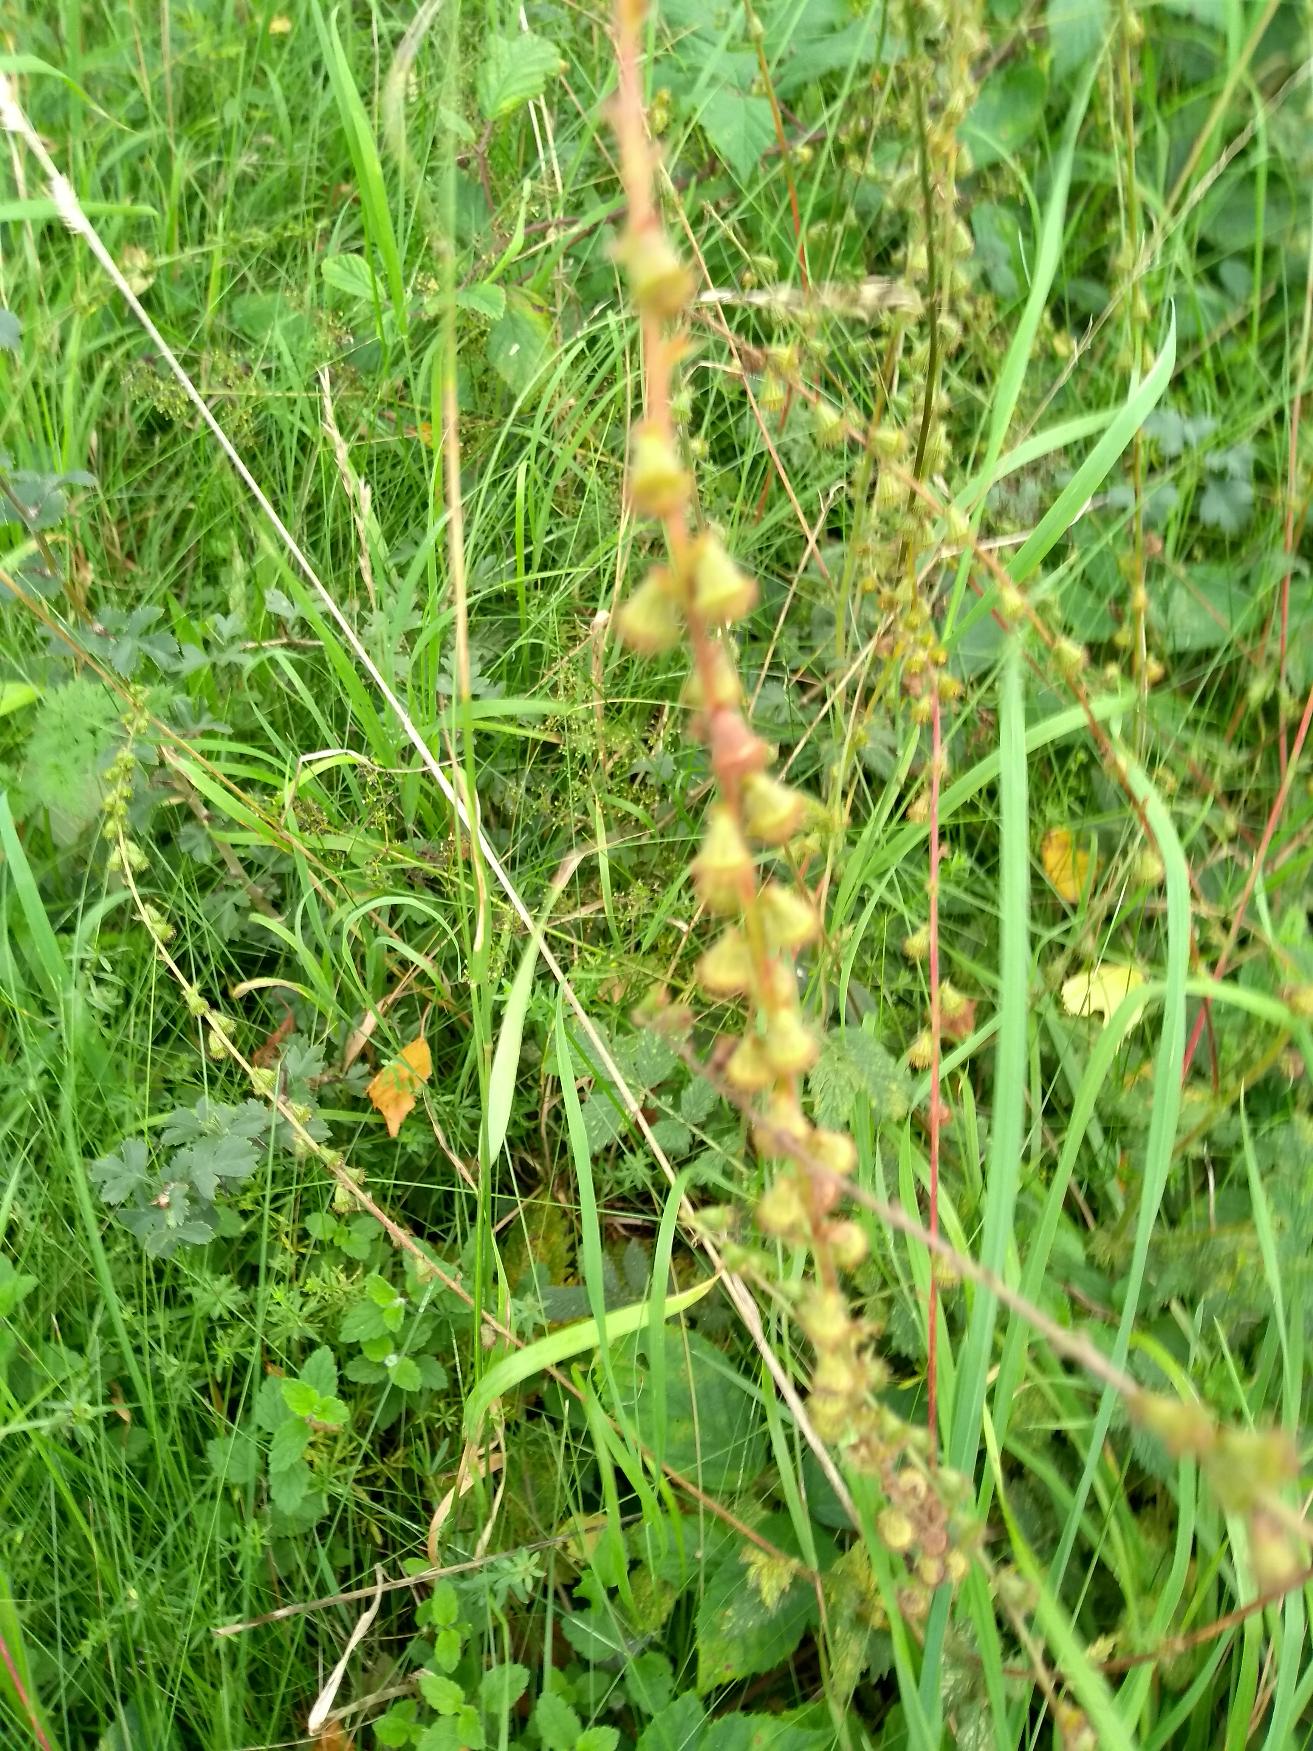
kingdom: Plantae
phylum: Tracheophyta
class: Magnoliopsida
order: Rosales
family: Rosaceae
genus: Agrimonia
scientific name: Agrimonia eupatoria
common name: Almindelig agermåne
